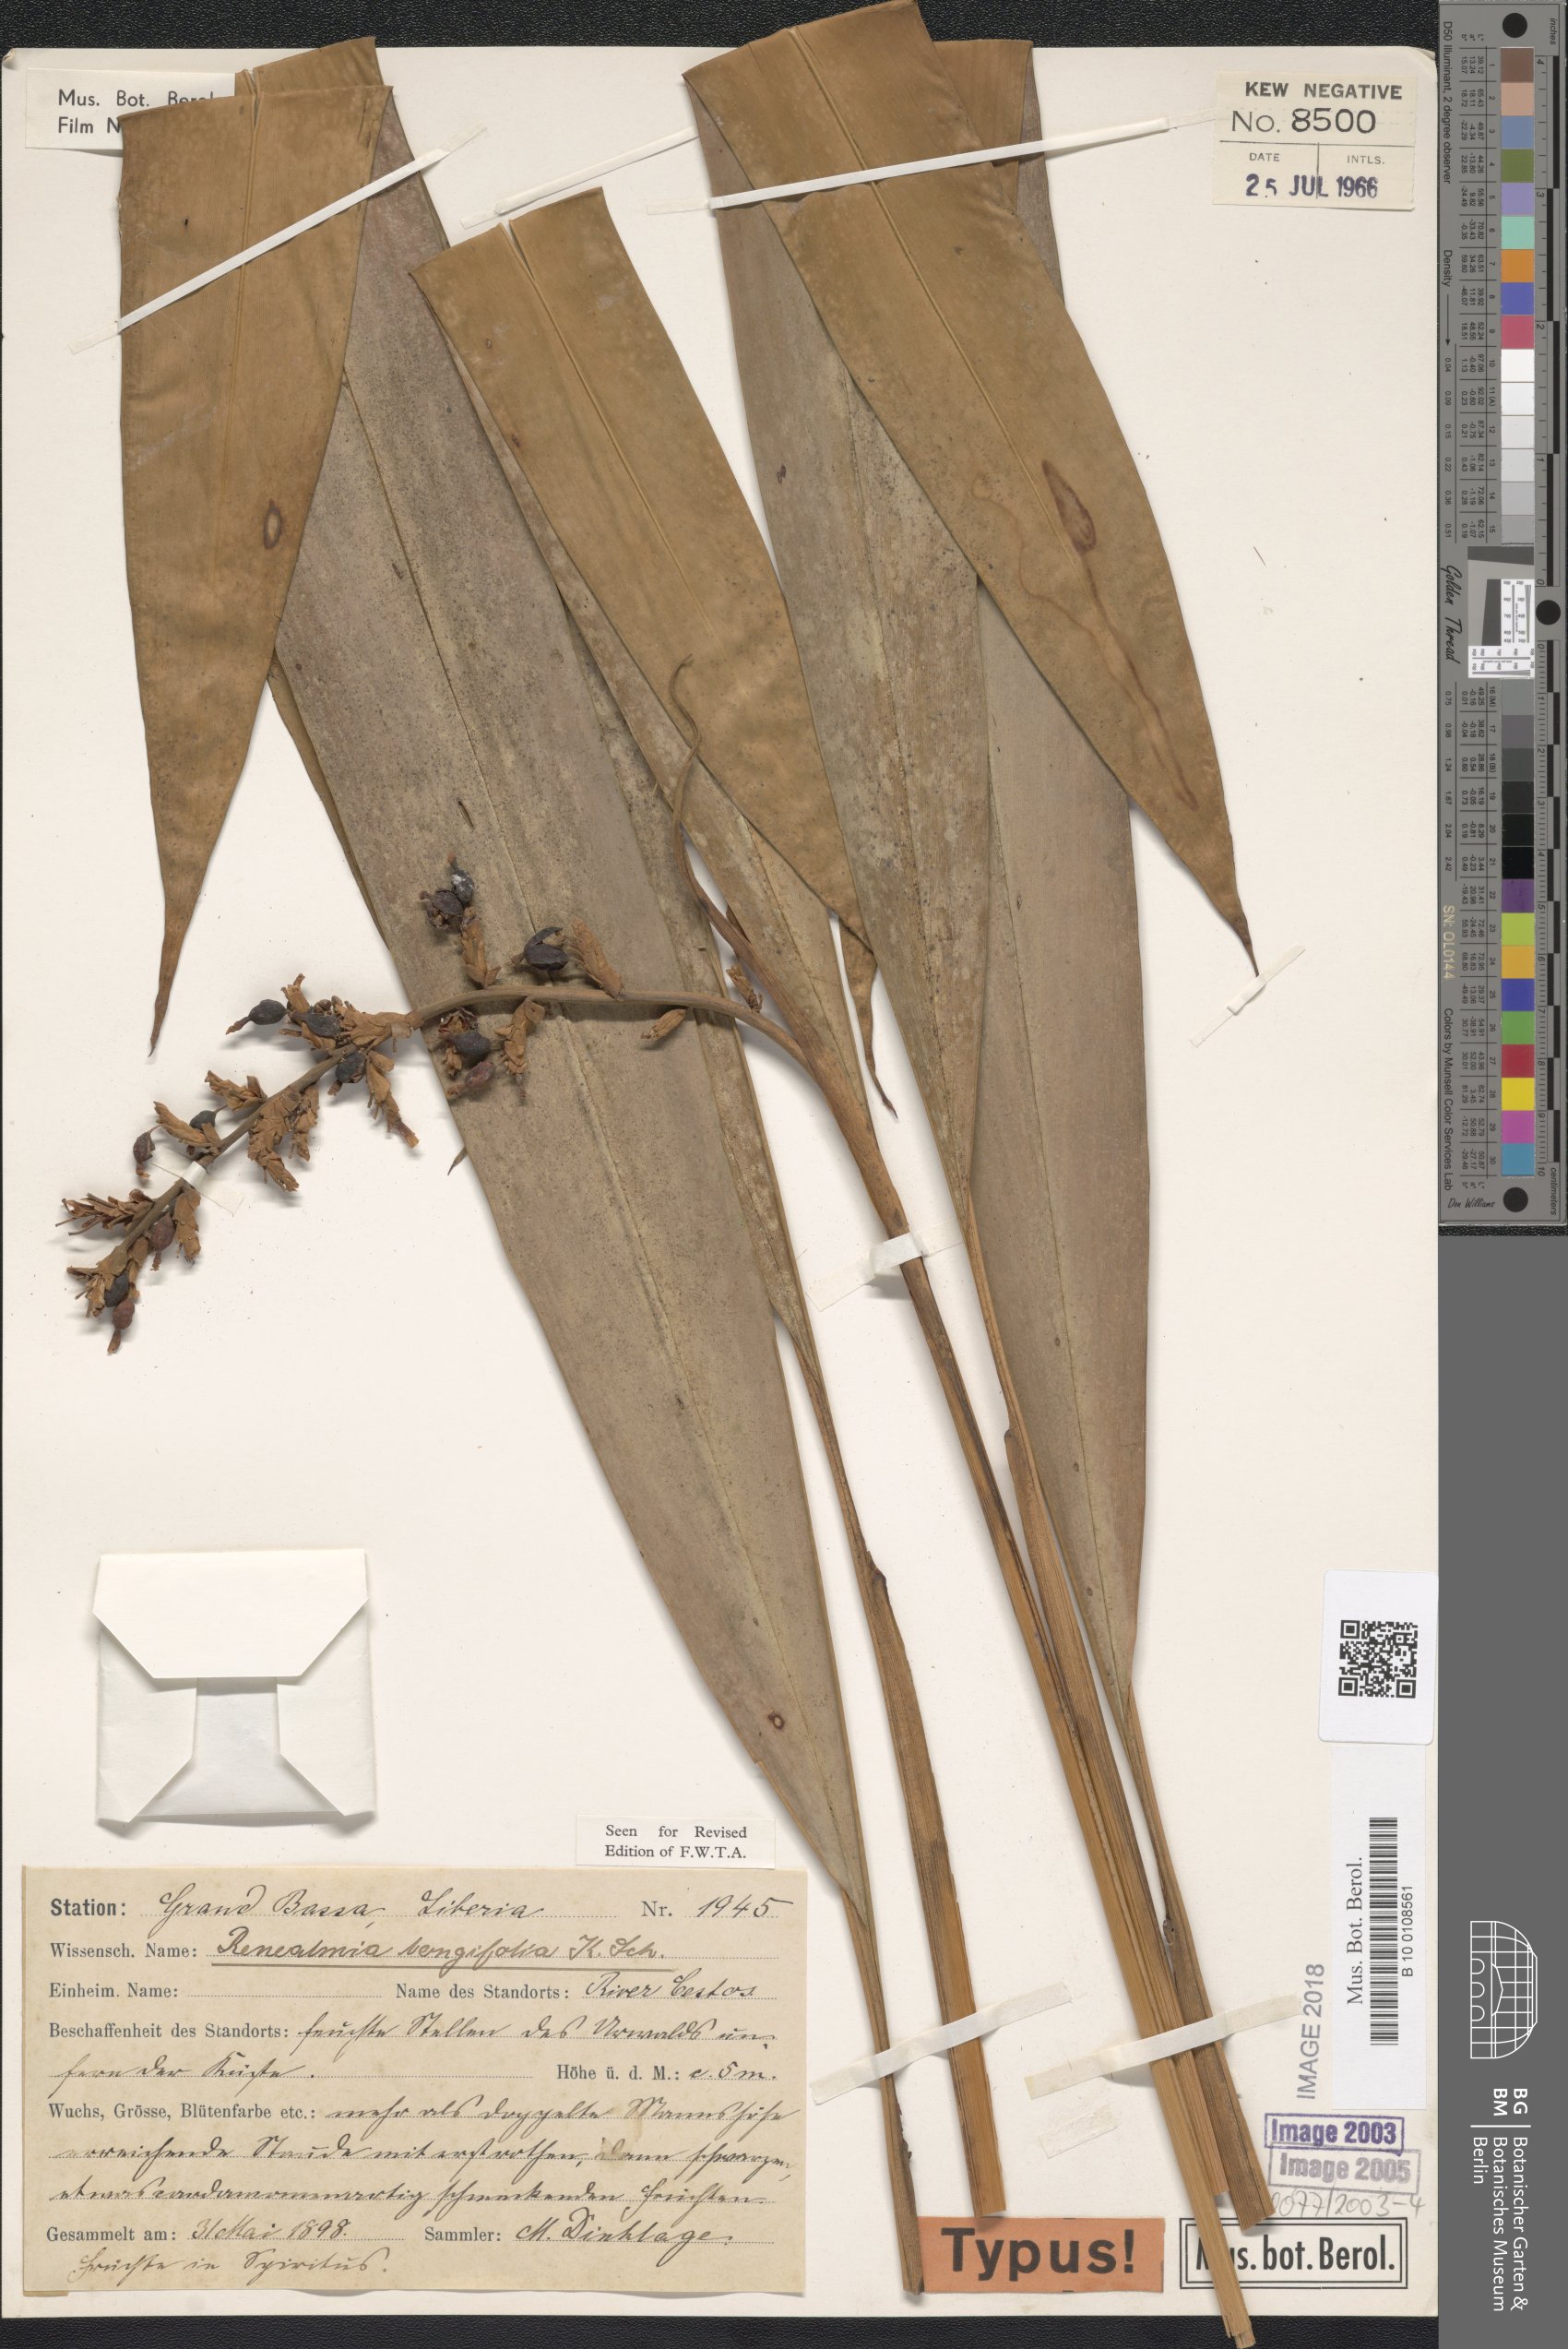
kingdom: Plantae
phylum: Tracheophyta
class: Liliopsida
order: Zingiberales
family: Zingiberaceae
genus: Renealmia
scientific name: Renealmia longifolia
